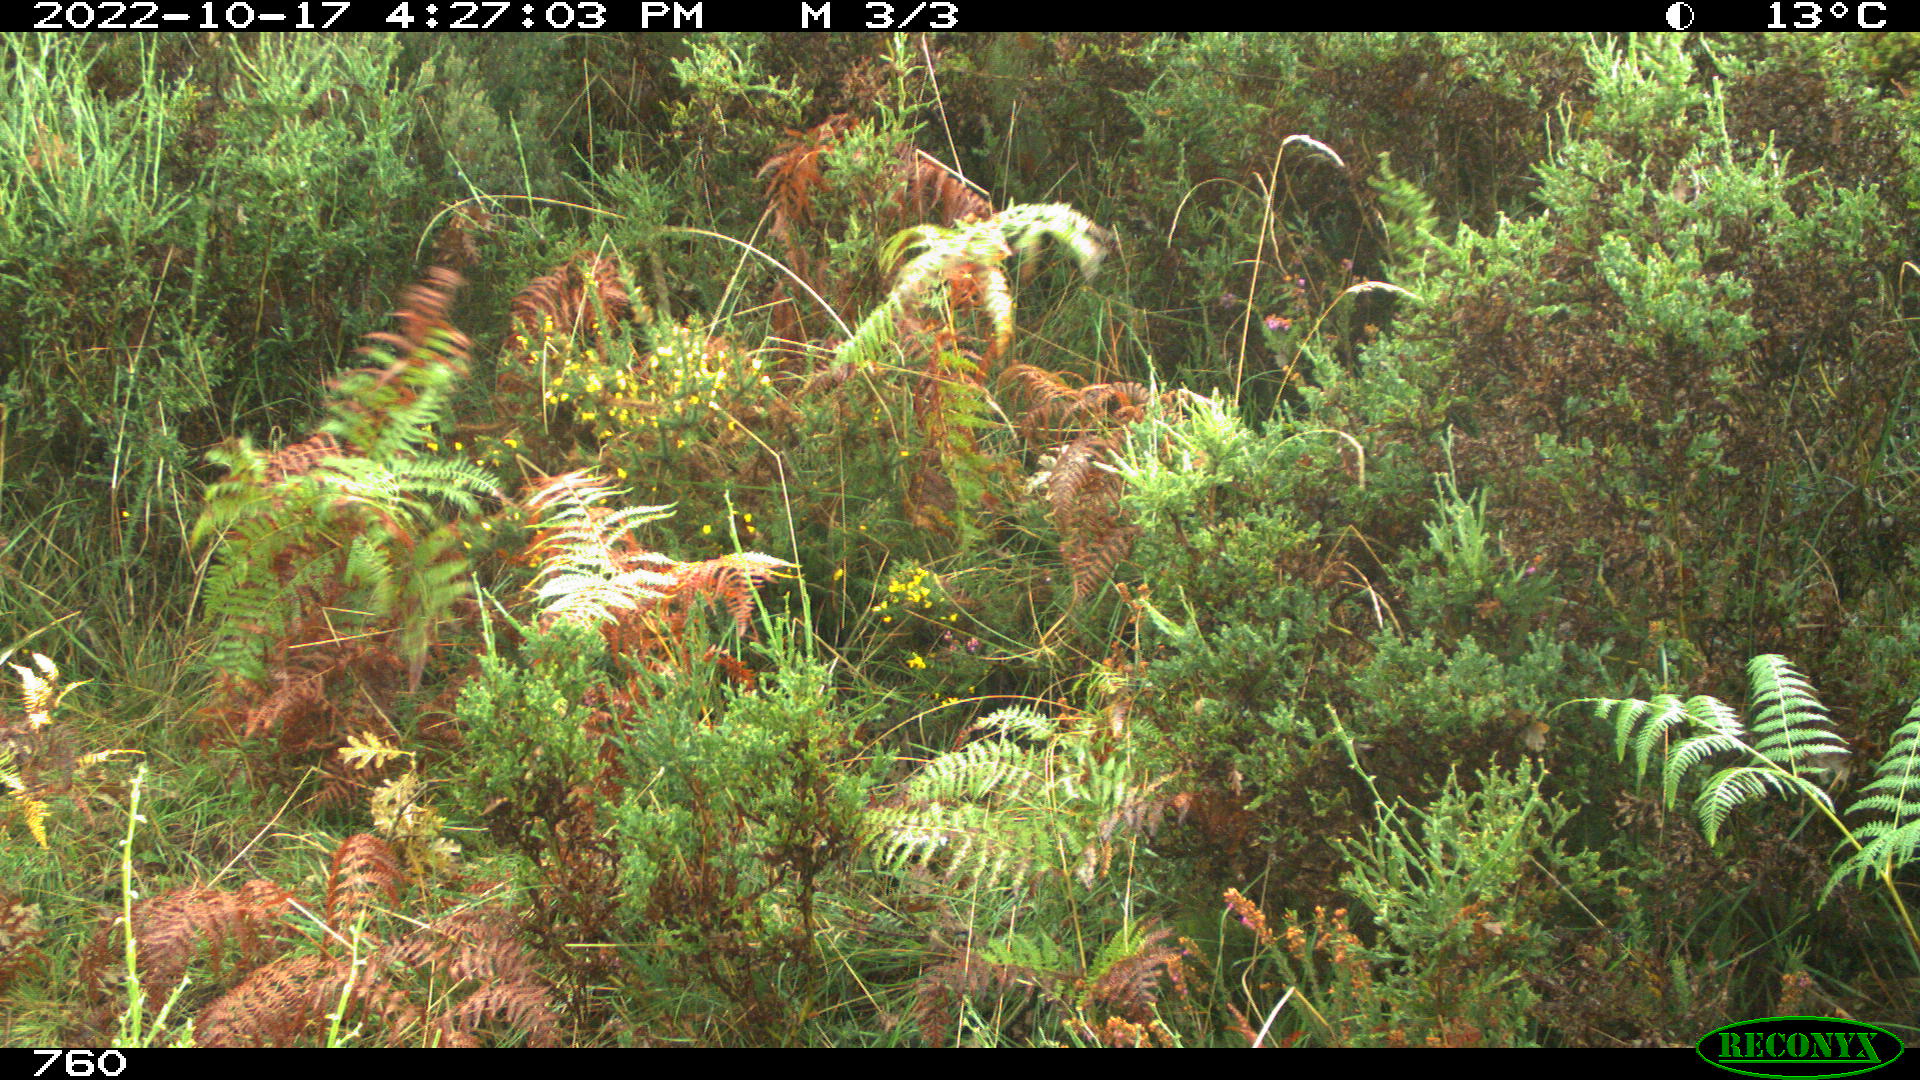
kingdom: Animalia
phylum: Chordata
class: Mammalia
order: Perissodactyla
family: Equidae
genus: Equus
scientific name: Equus caballus
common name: Horse
